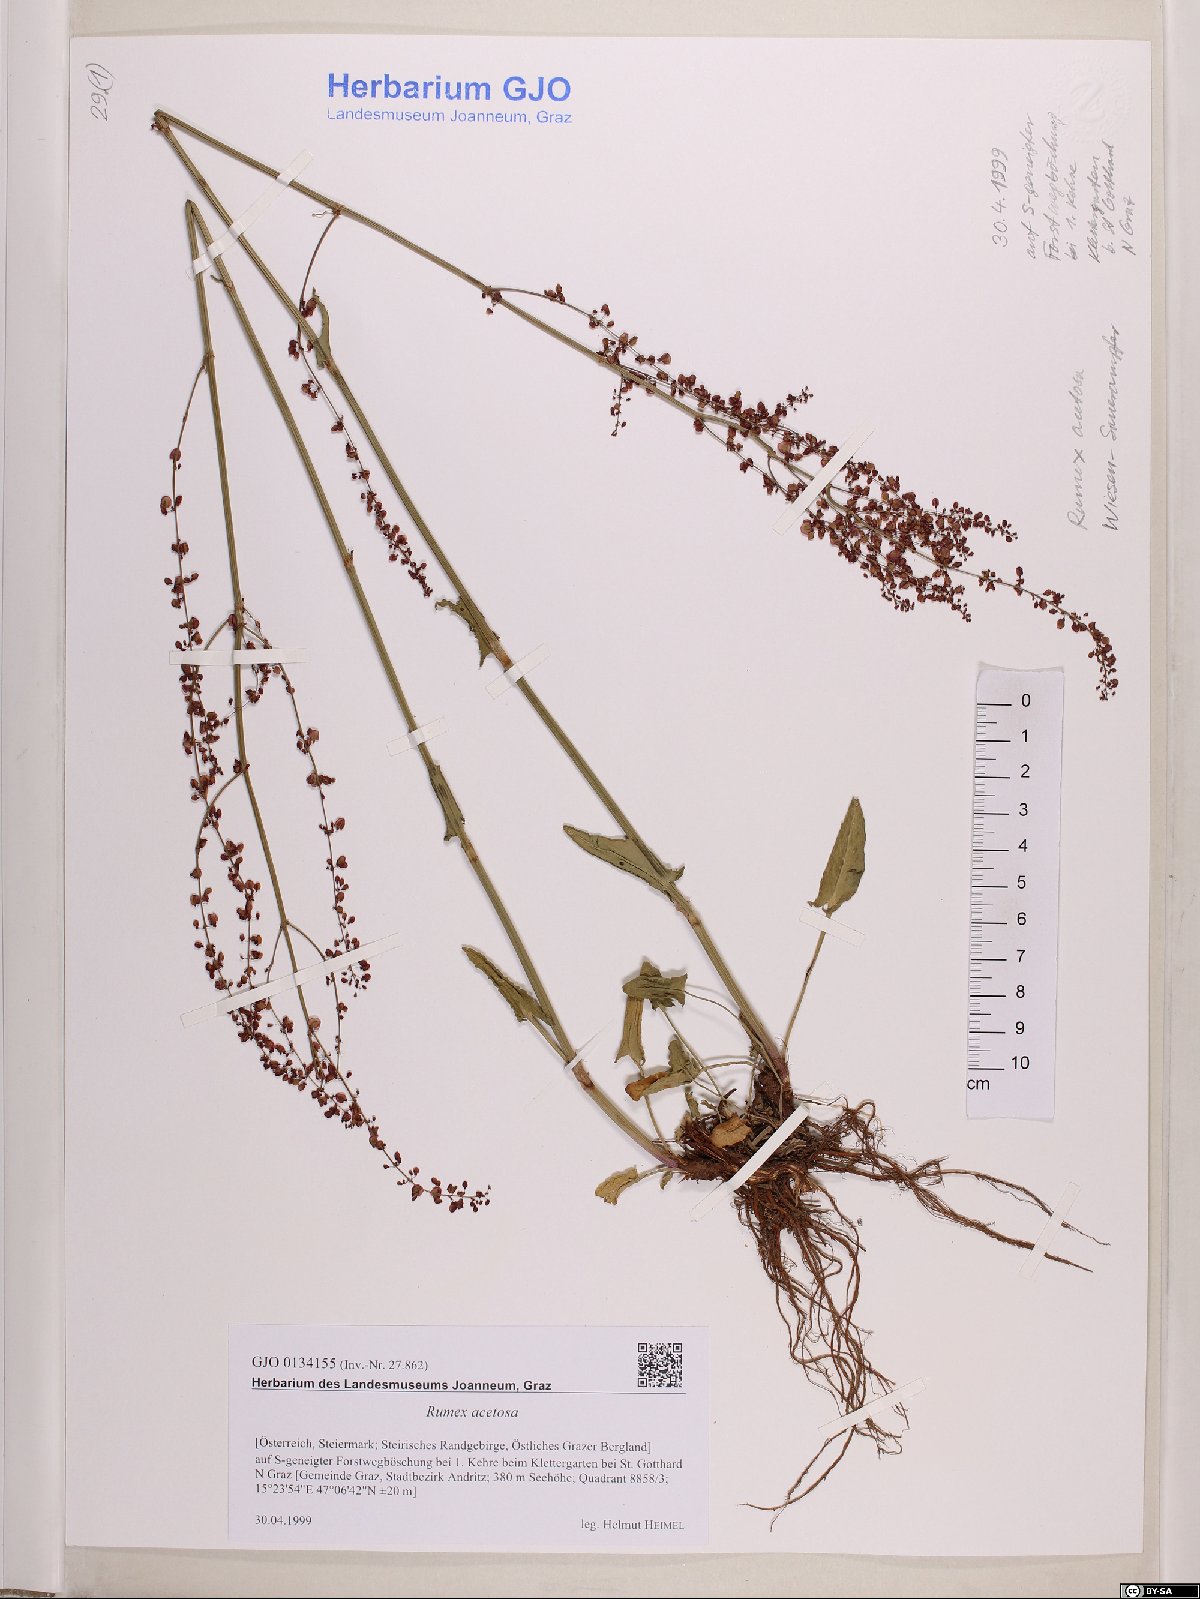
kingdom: Plantae
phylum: Tracheophyta
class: Magnoliopsida
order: Caryophyllales
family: Polygonaceae
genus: Rumex
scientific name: Rumex acetosa
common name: Garden sorrel
